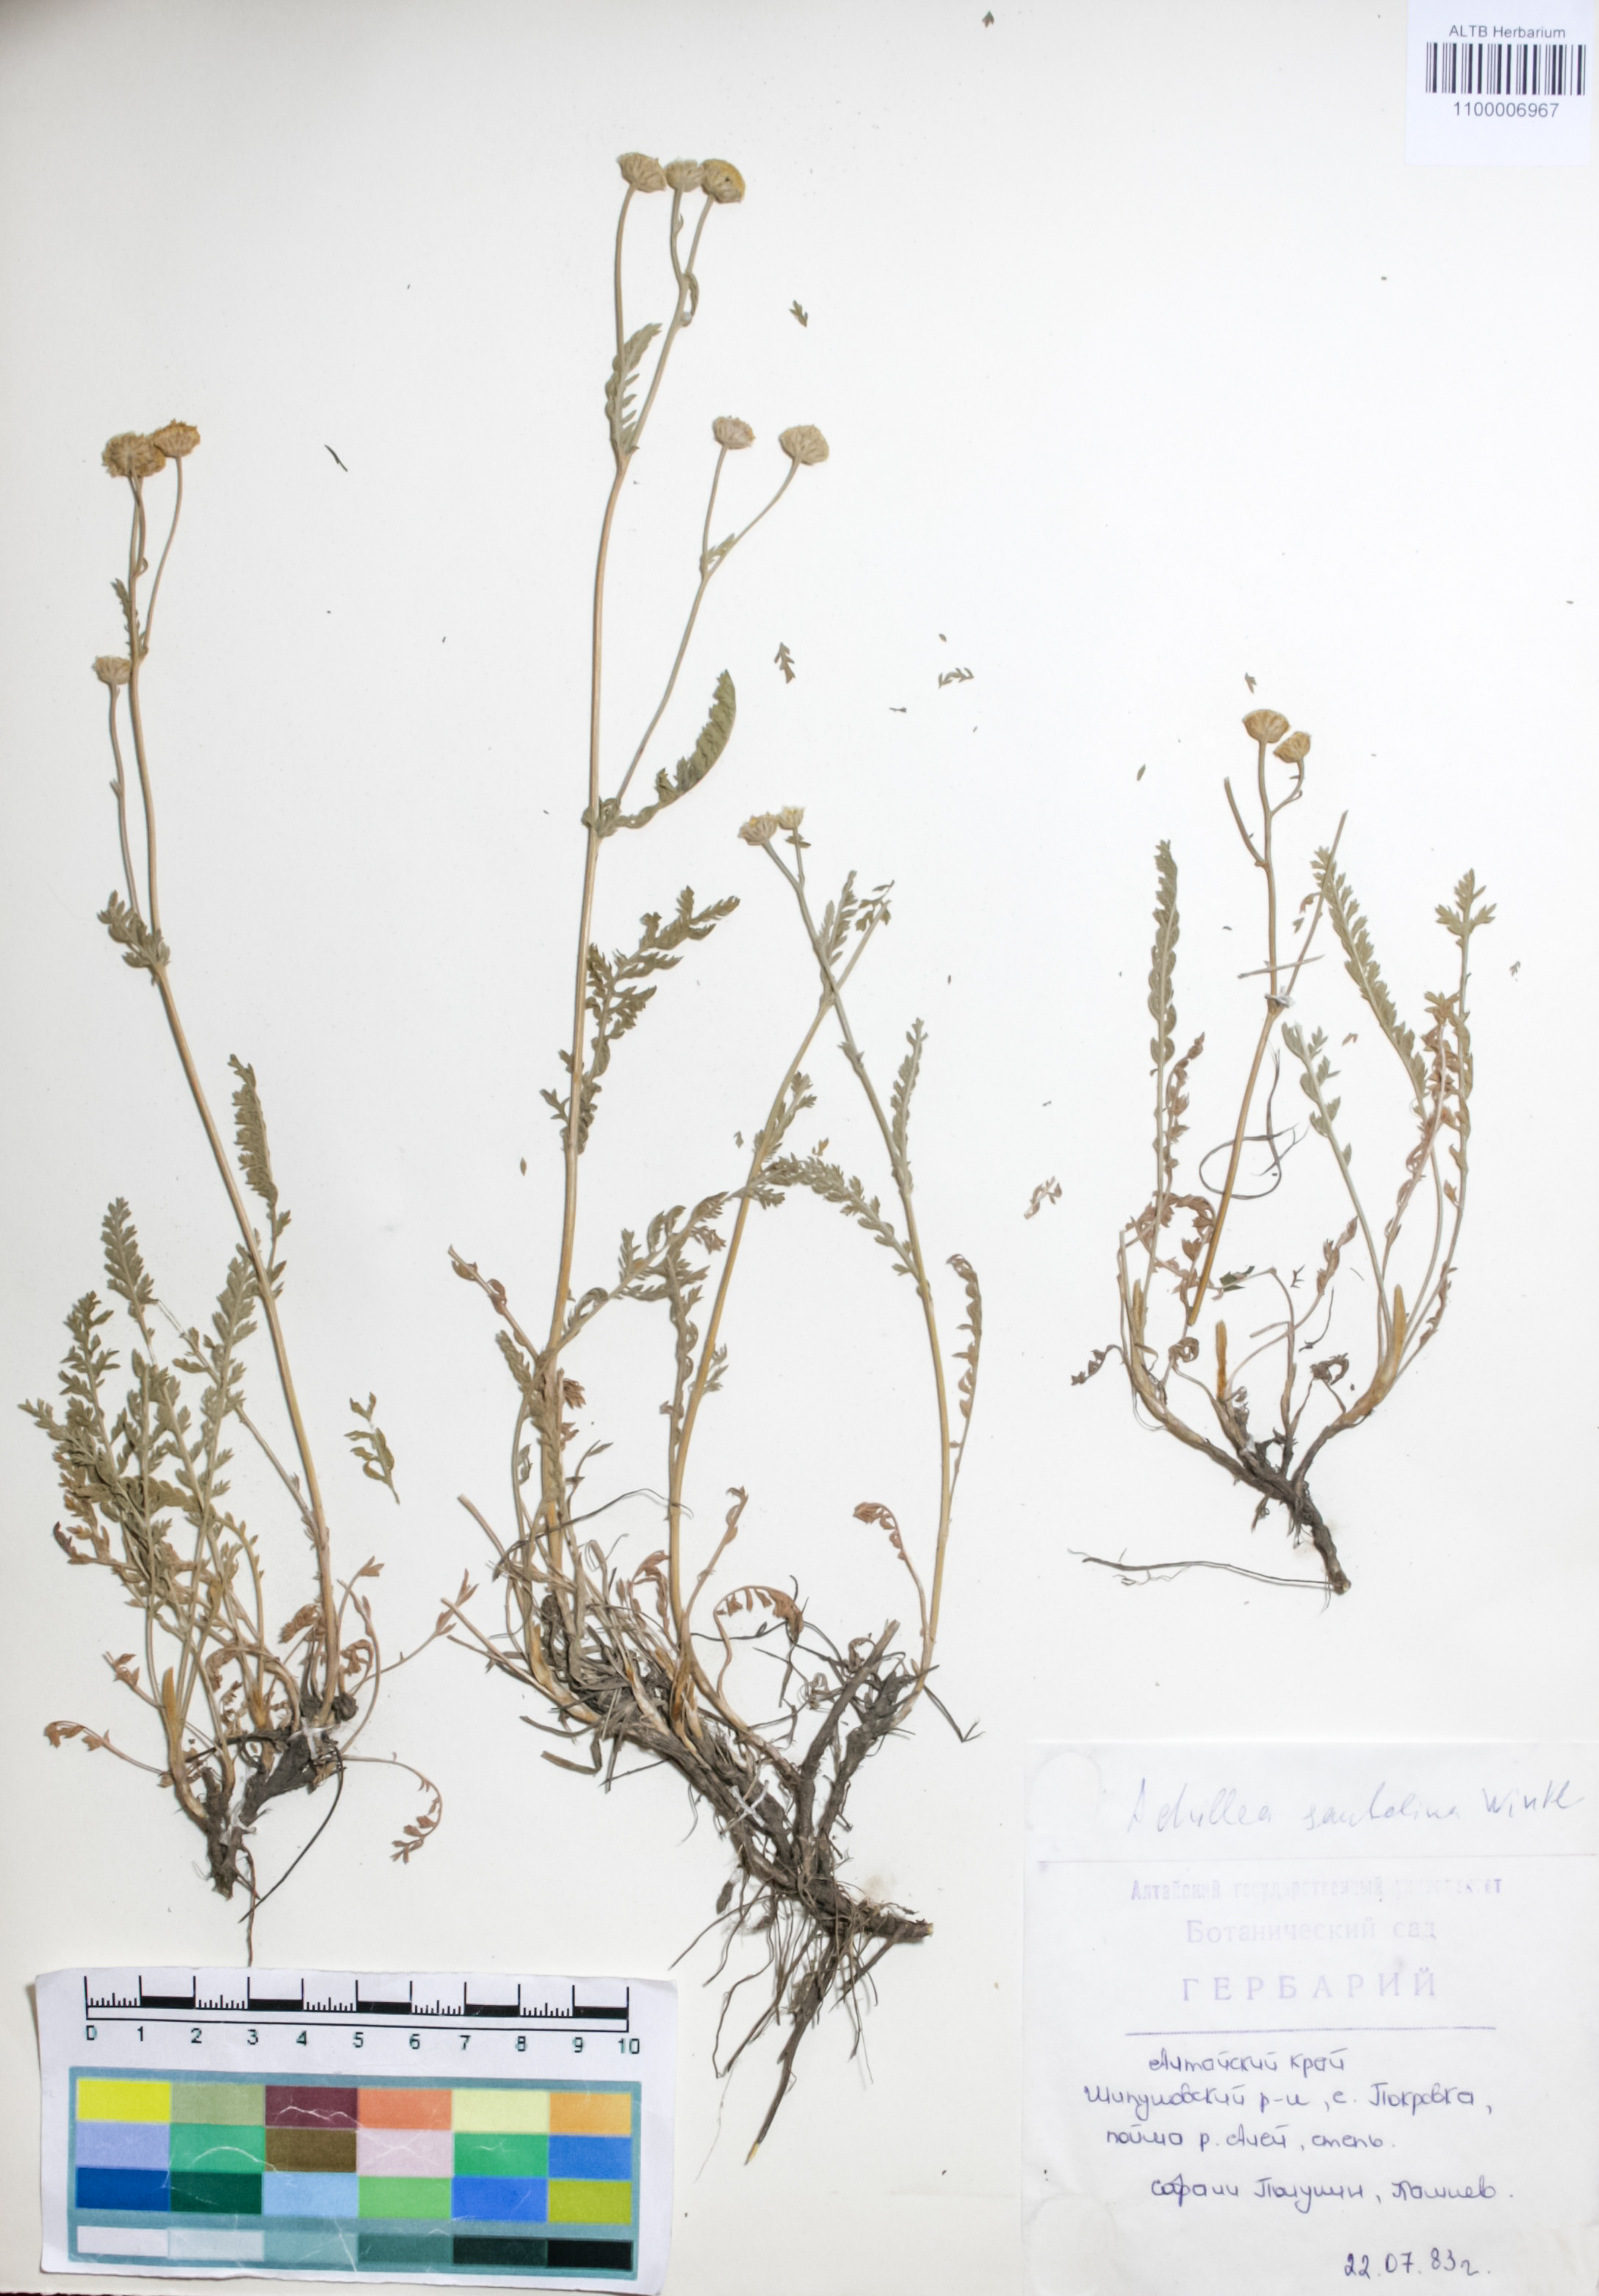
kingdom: Plantae
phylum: Tracheophyta
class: Magnoliopsida
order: Asterales
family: Asteraceae
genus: Achillea
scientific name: Achillea santolina
